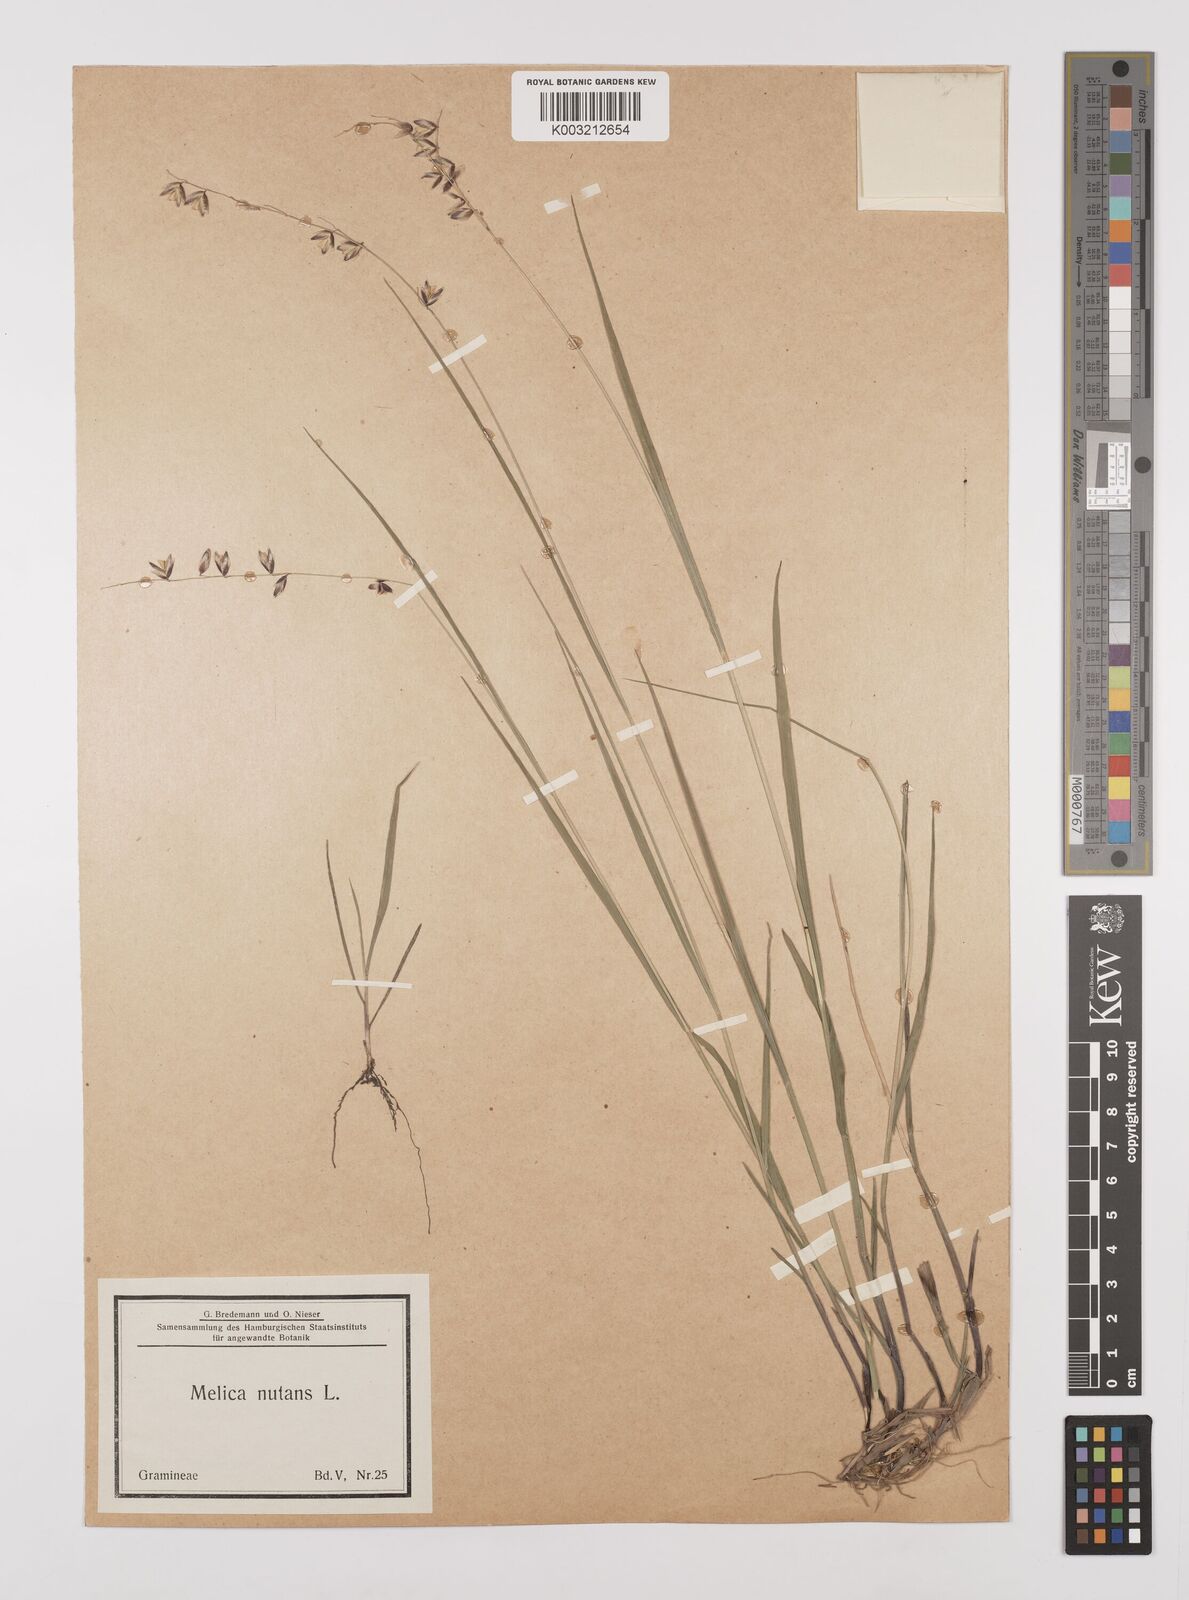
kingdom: Plantae
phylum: Tracheophyta
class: Liliopsida
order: Poales
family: Poaceae
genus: Melica
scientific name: Melica
